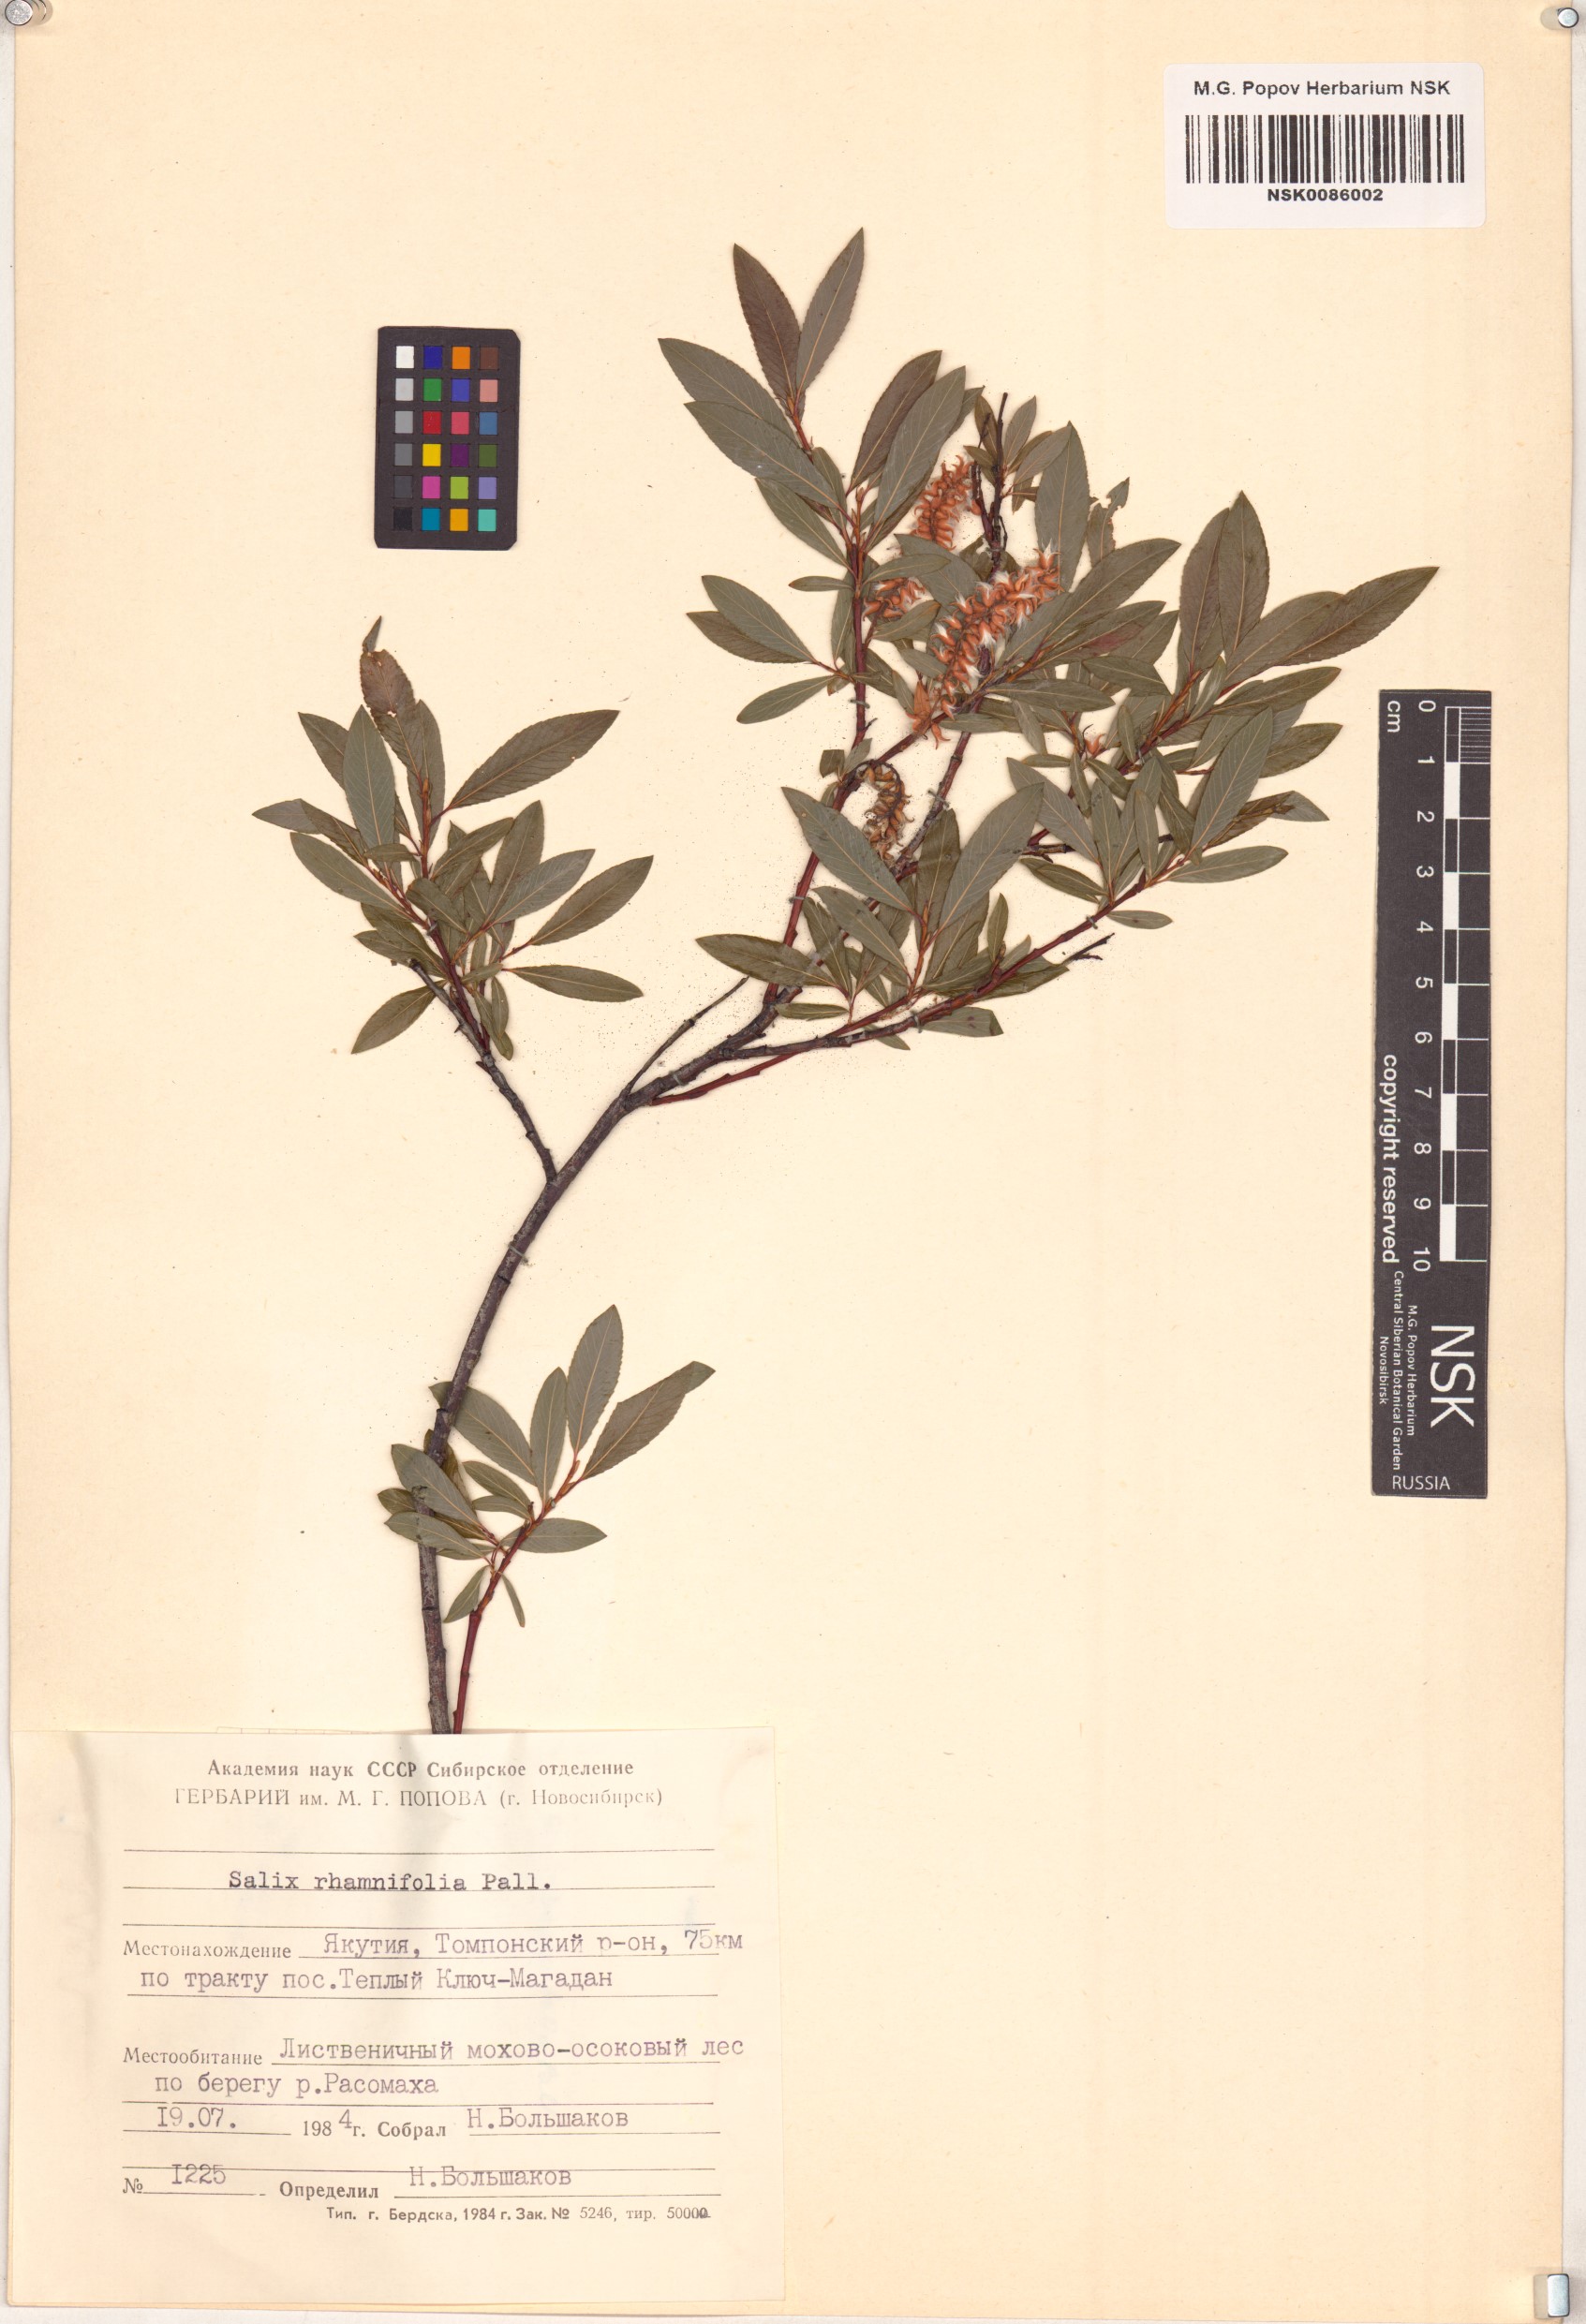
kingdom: Plantae
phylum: Tracheophyta
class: Magnoliopsida
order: Malpighiales
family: Salicaceae
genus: Salix
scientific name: Salix rhamnifolia
